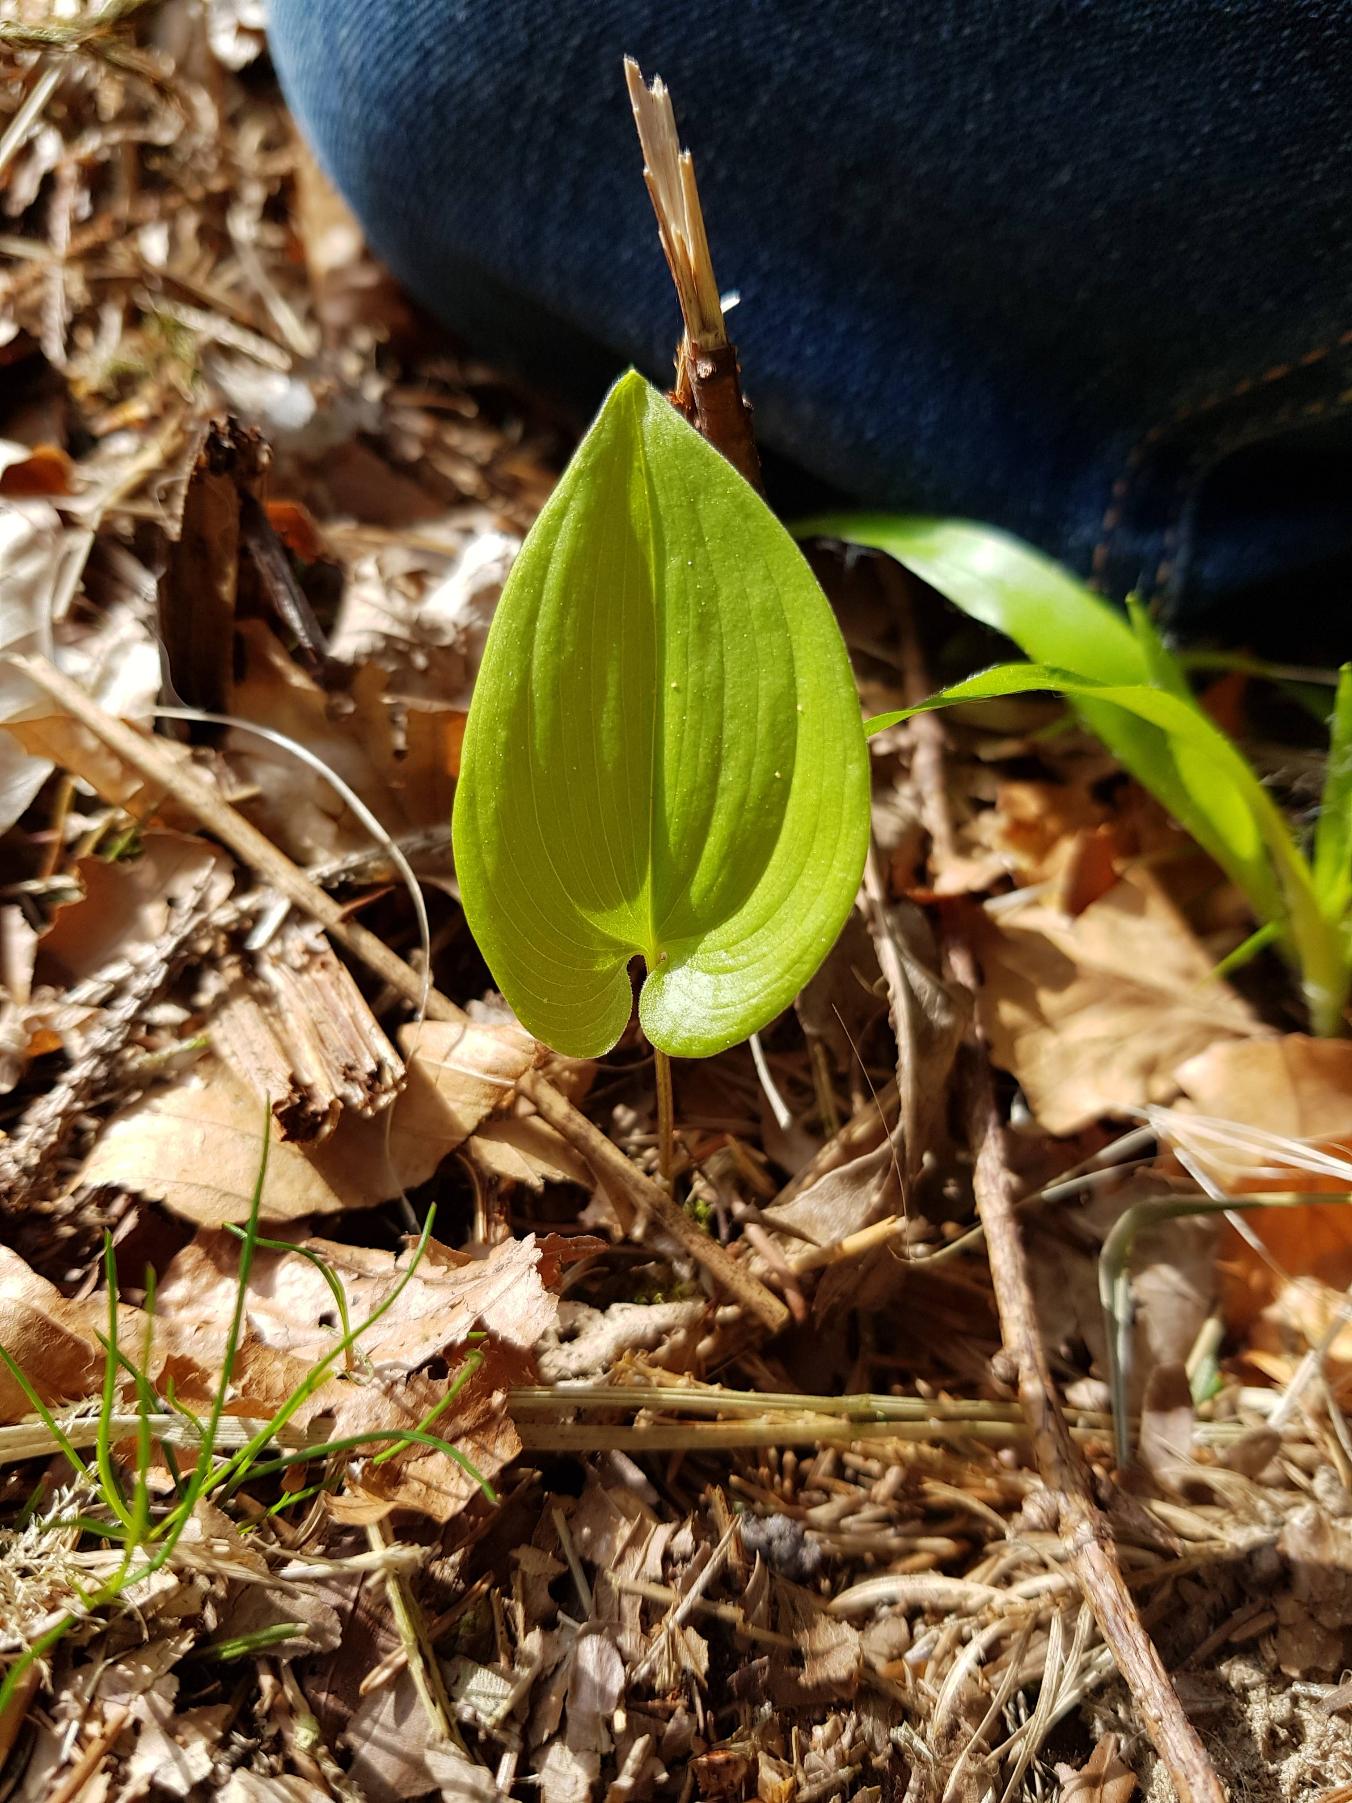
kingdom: Plantae
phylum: Tracheophyta
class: Liliopsida
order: Asparagales
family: Asparagaceae
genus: Maianthemum
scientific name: Maianthemum bifolium
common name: Majblomst
